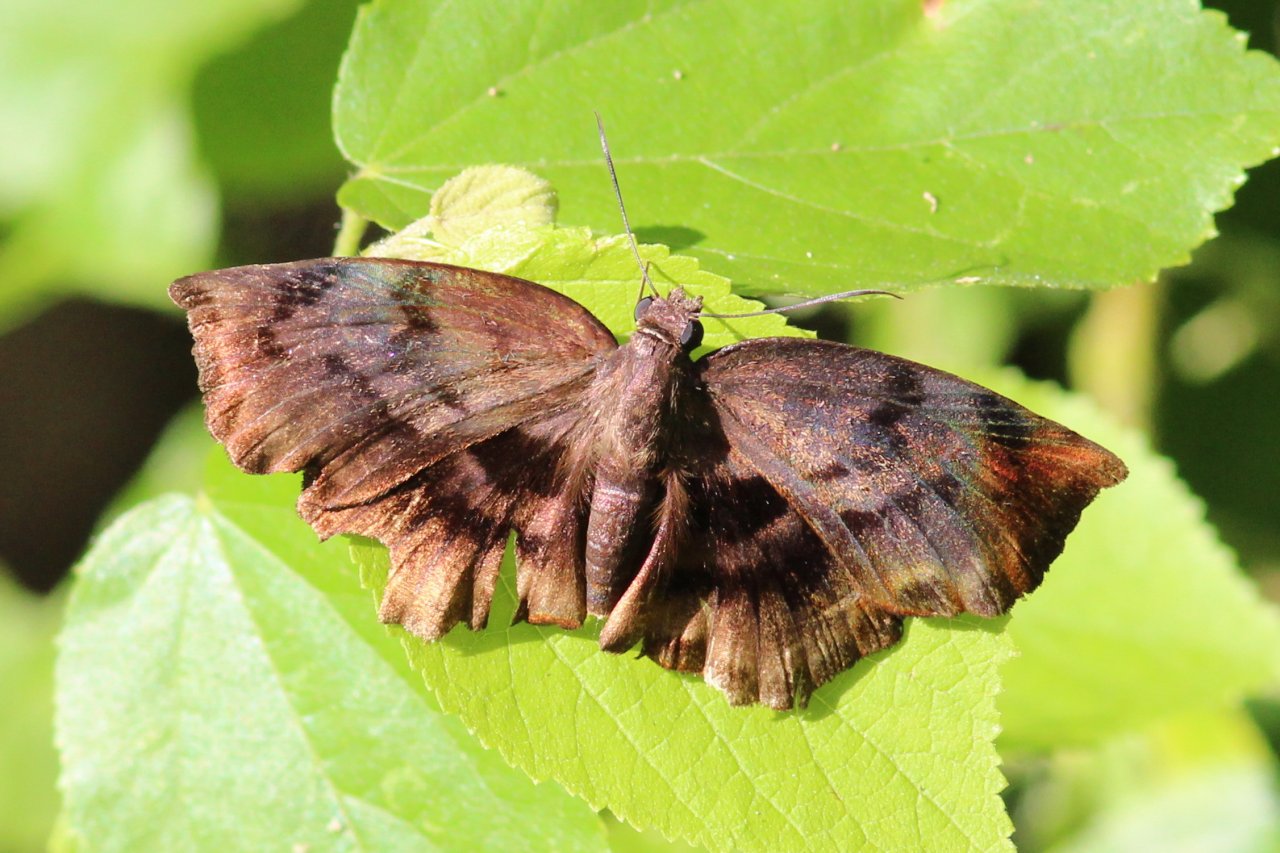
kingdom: Animalia
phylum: Arthropoda
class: Insecta
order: Lepidoptera
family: Hesperiidae
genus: Achlyodes
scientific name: Achlyodes busirus
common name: Giant Sicklewing
